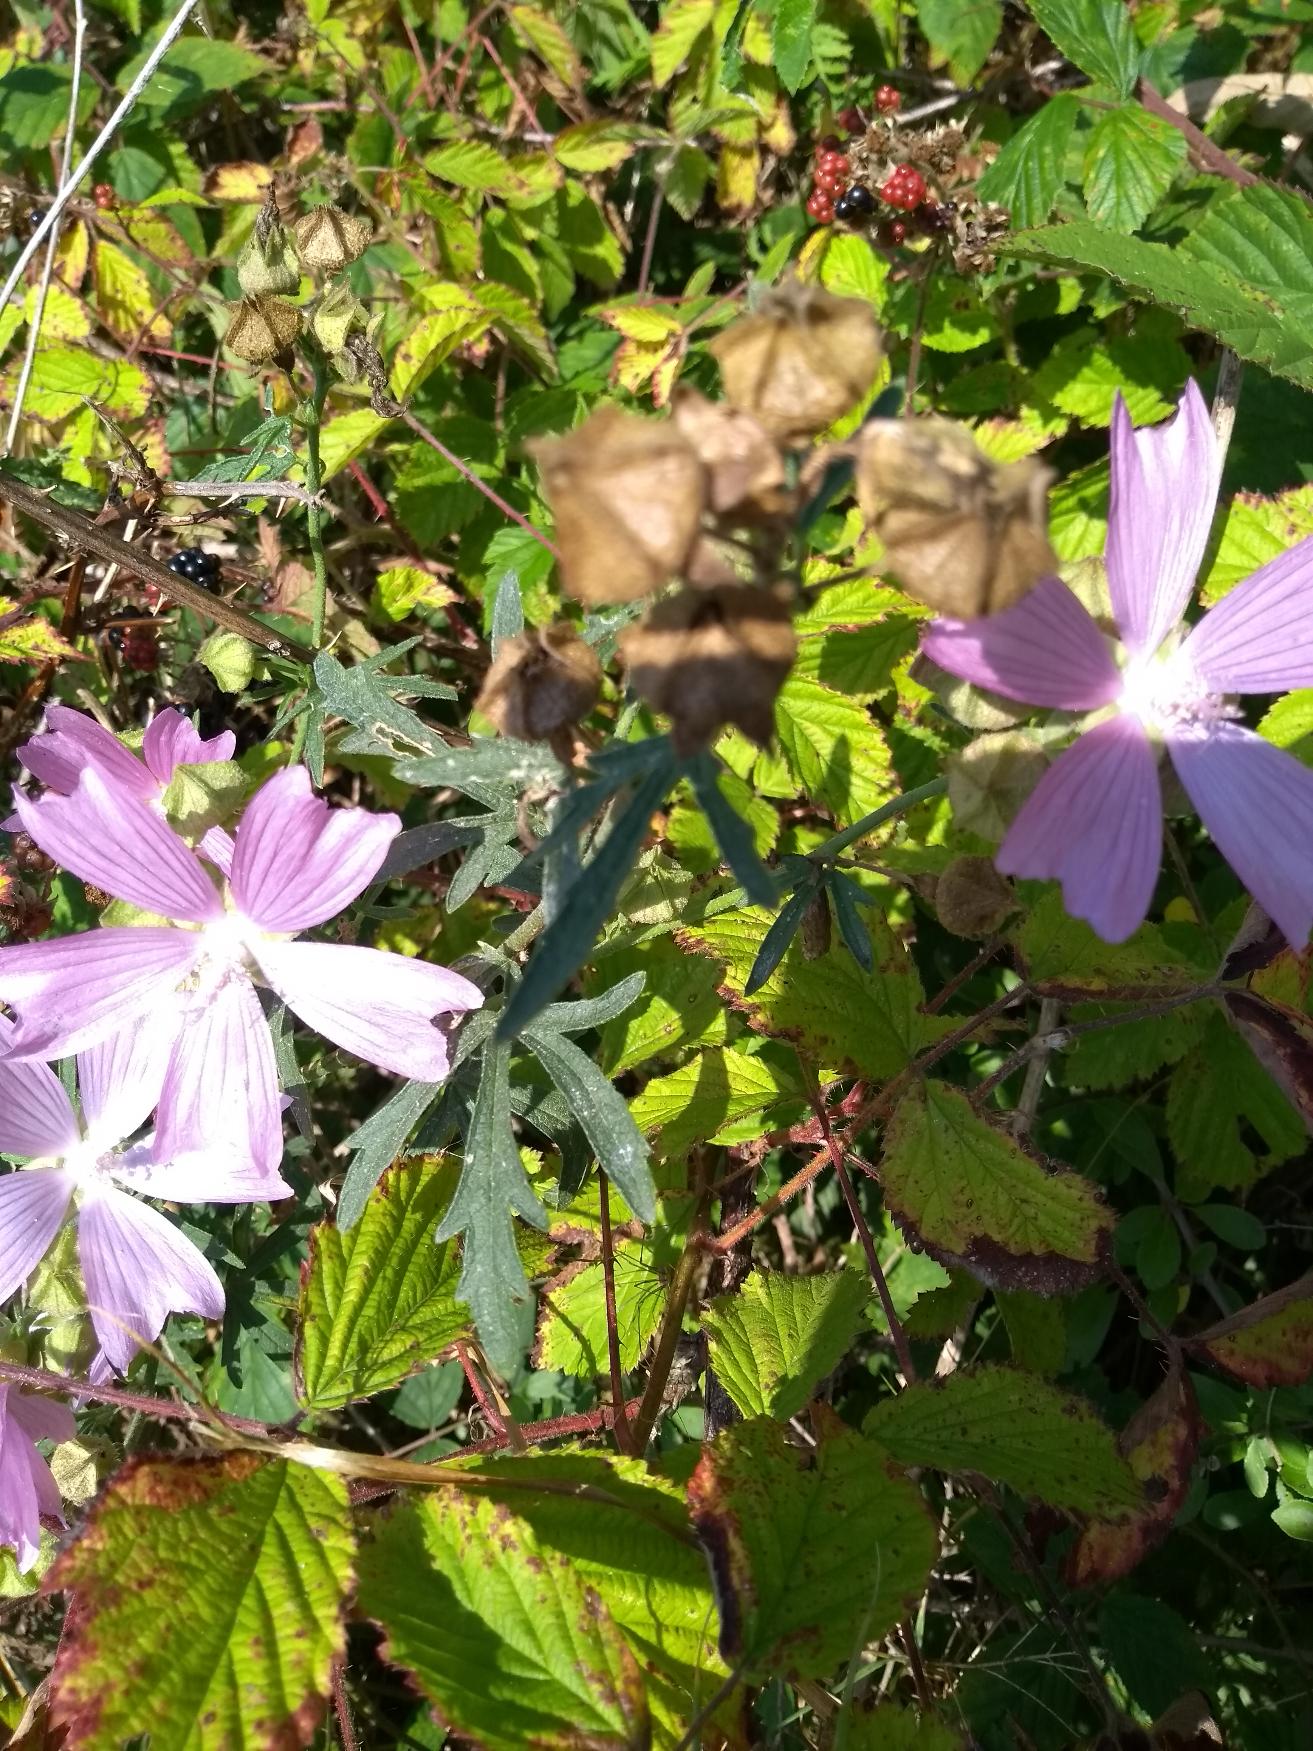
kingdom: Plantae
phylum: Tracheophyta
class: Magnoliopsida
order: Malvales
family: Malvaceae
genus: Malva
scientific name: Malva alcea
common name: Rosen-katost
